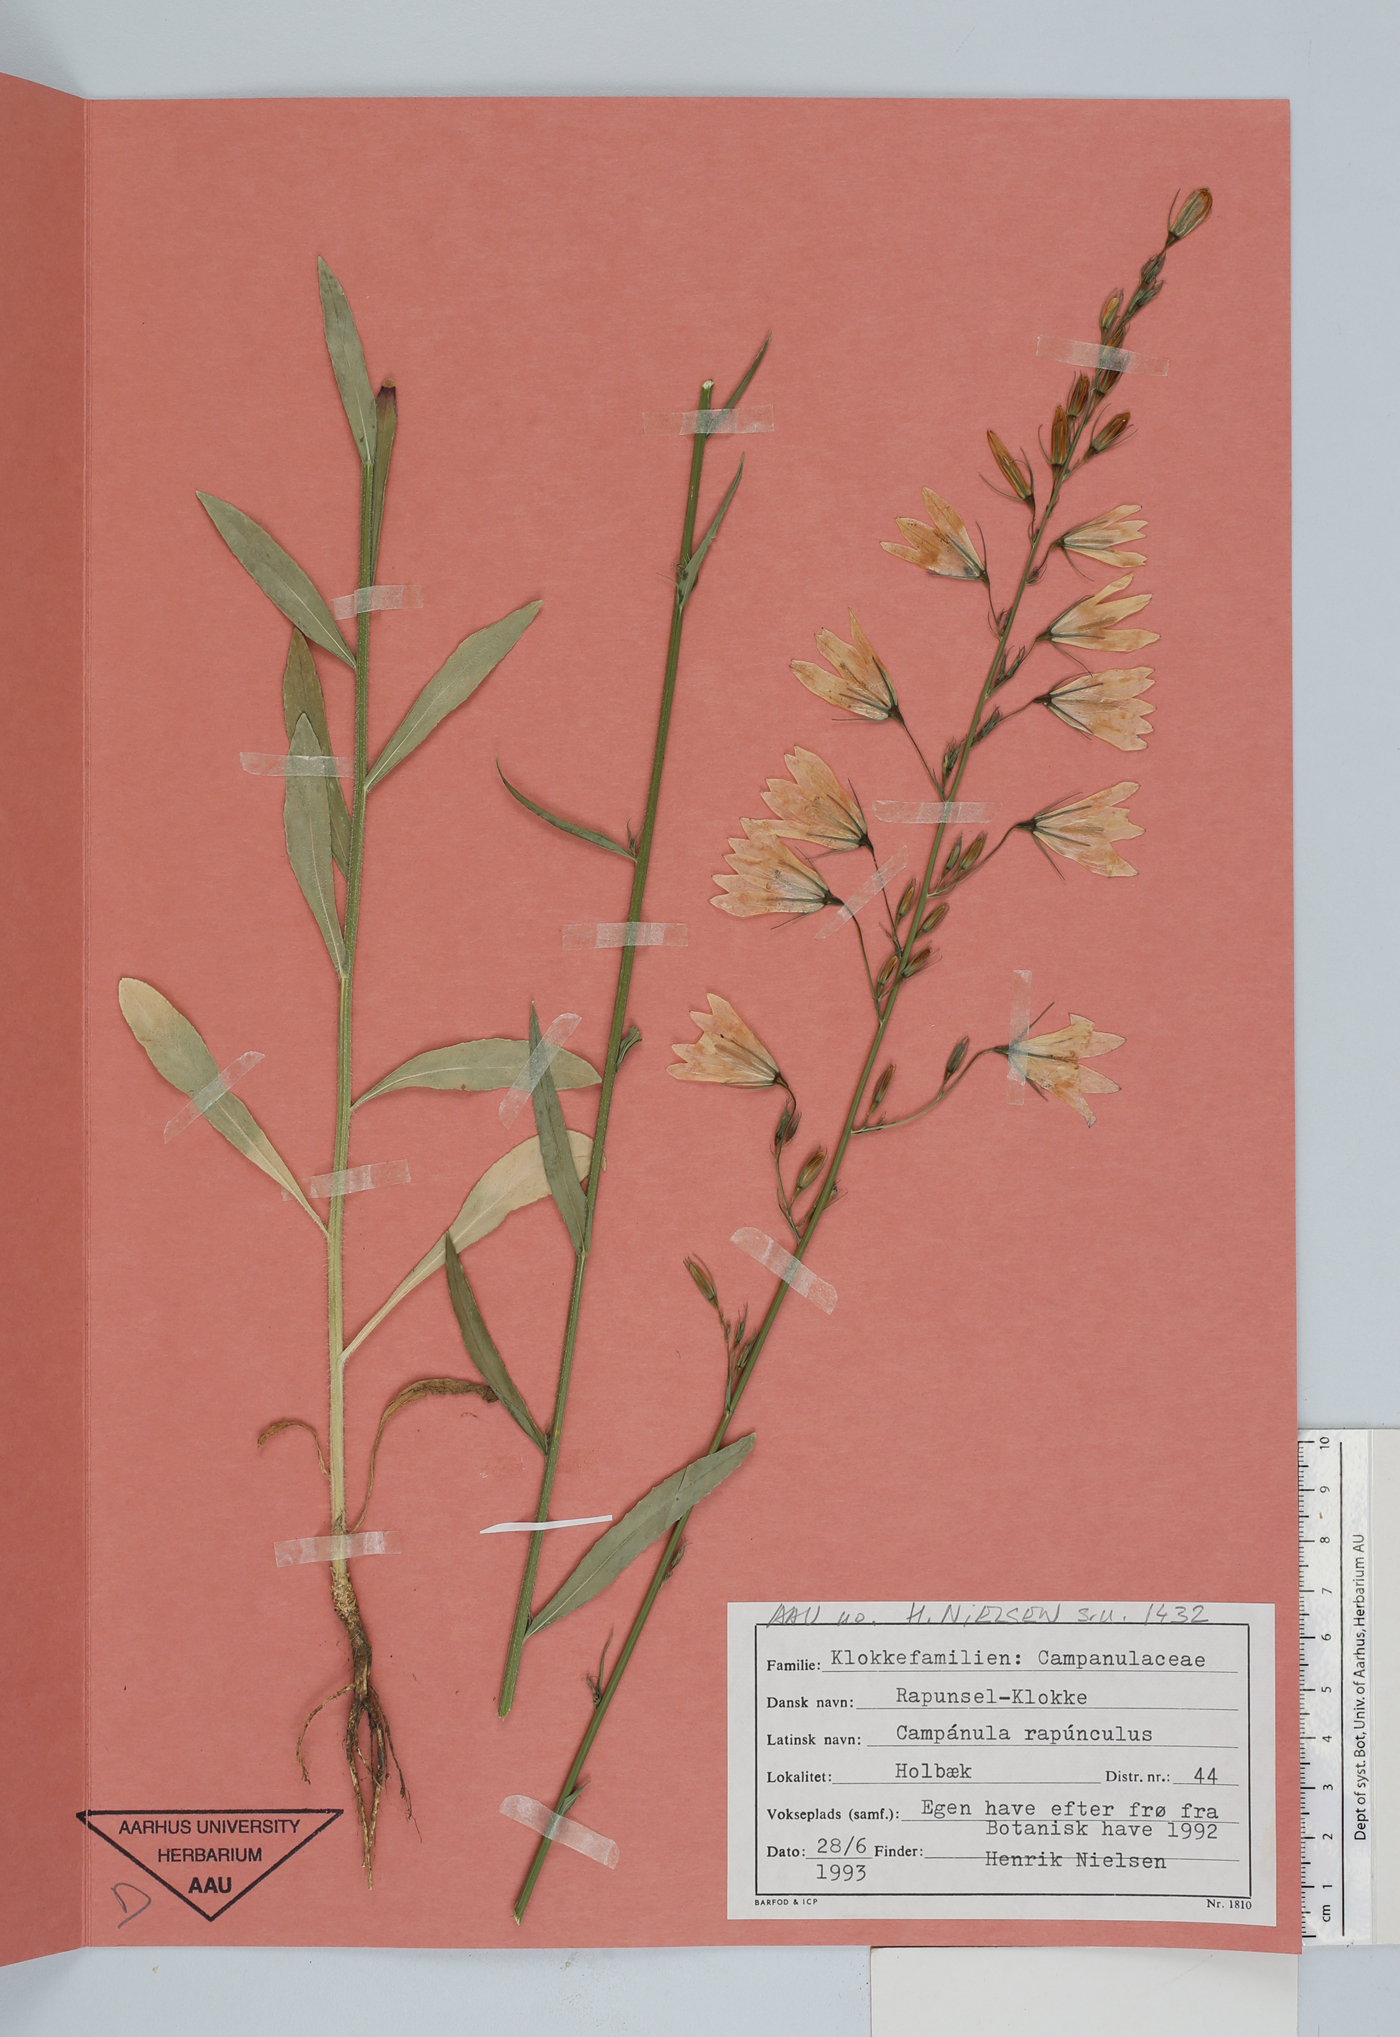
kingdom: Plantae
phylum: Tracheophyta
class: Magnoliopsida
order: Asterales
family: Campanulaceae
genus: Campanula
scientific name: Campanula rapunculus
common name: Rampion bellflower
